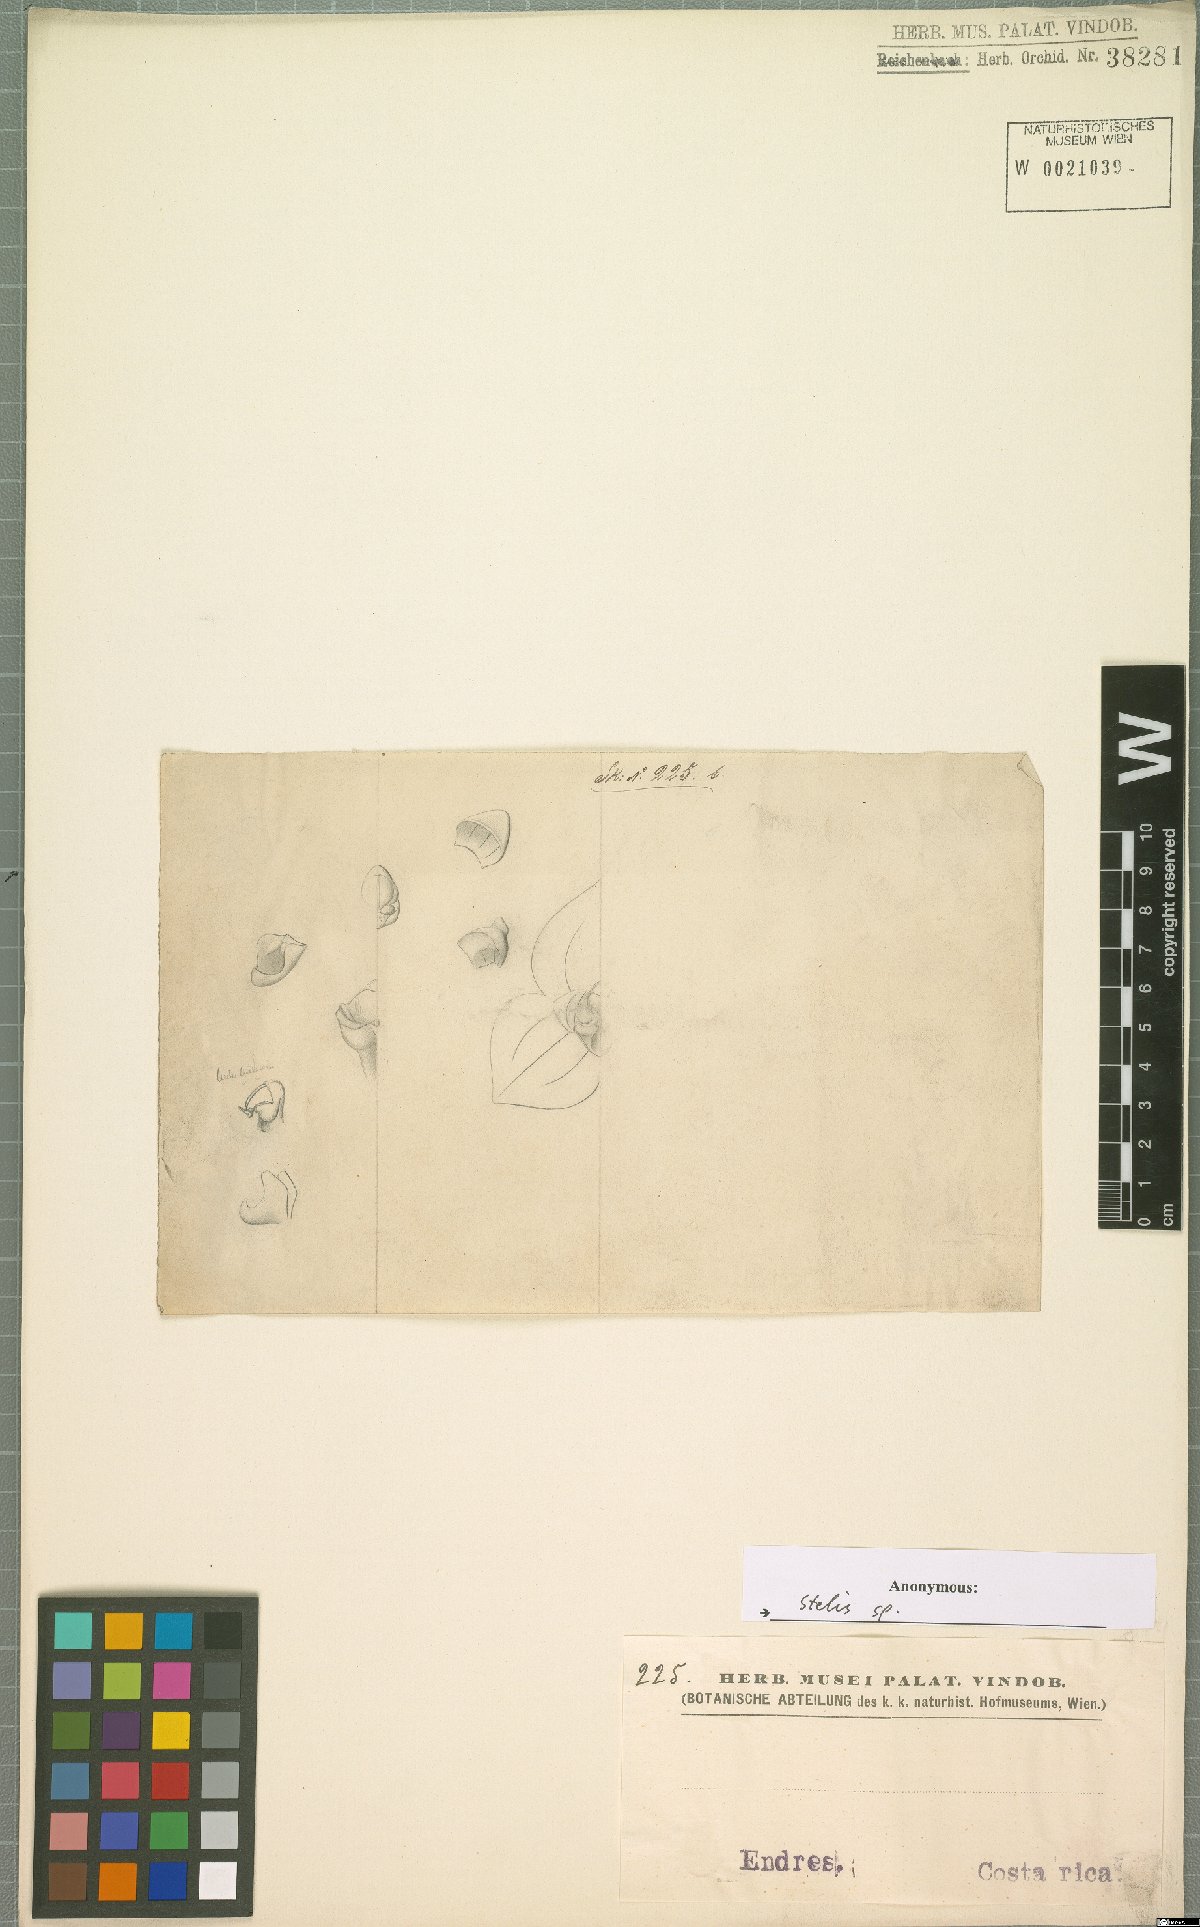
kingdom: Plantae
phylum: Tracheophyta
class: Liliopsida
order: Asparagales
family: Orchidaceae
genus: Stelis
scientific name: Stelis
